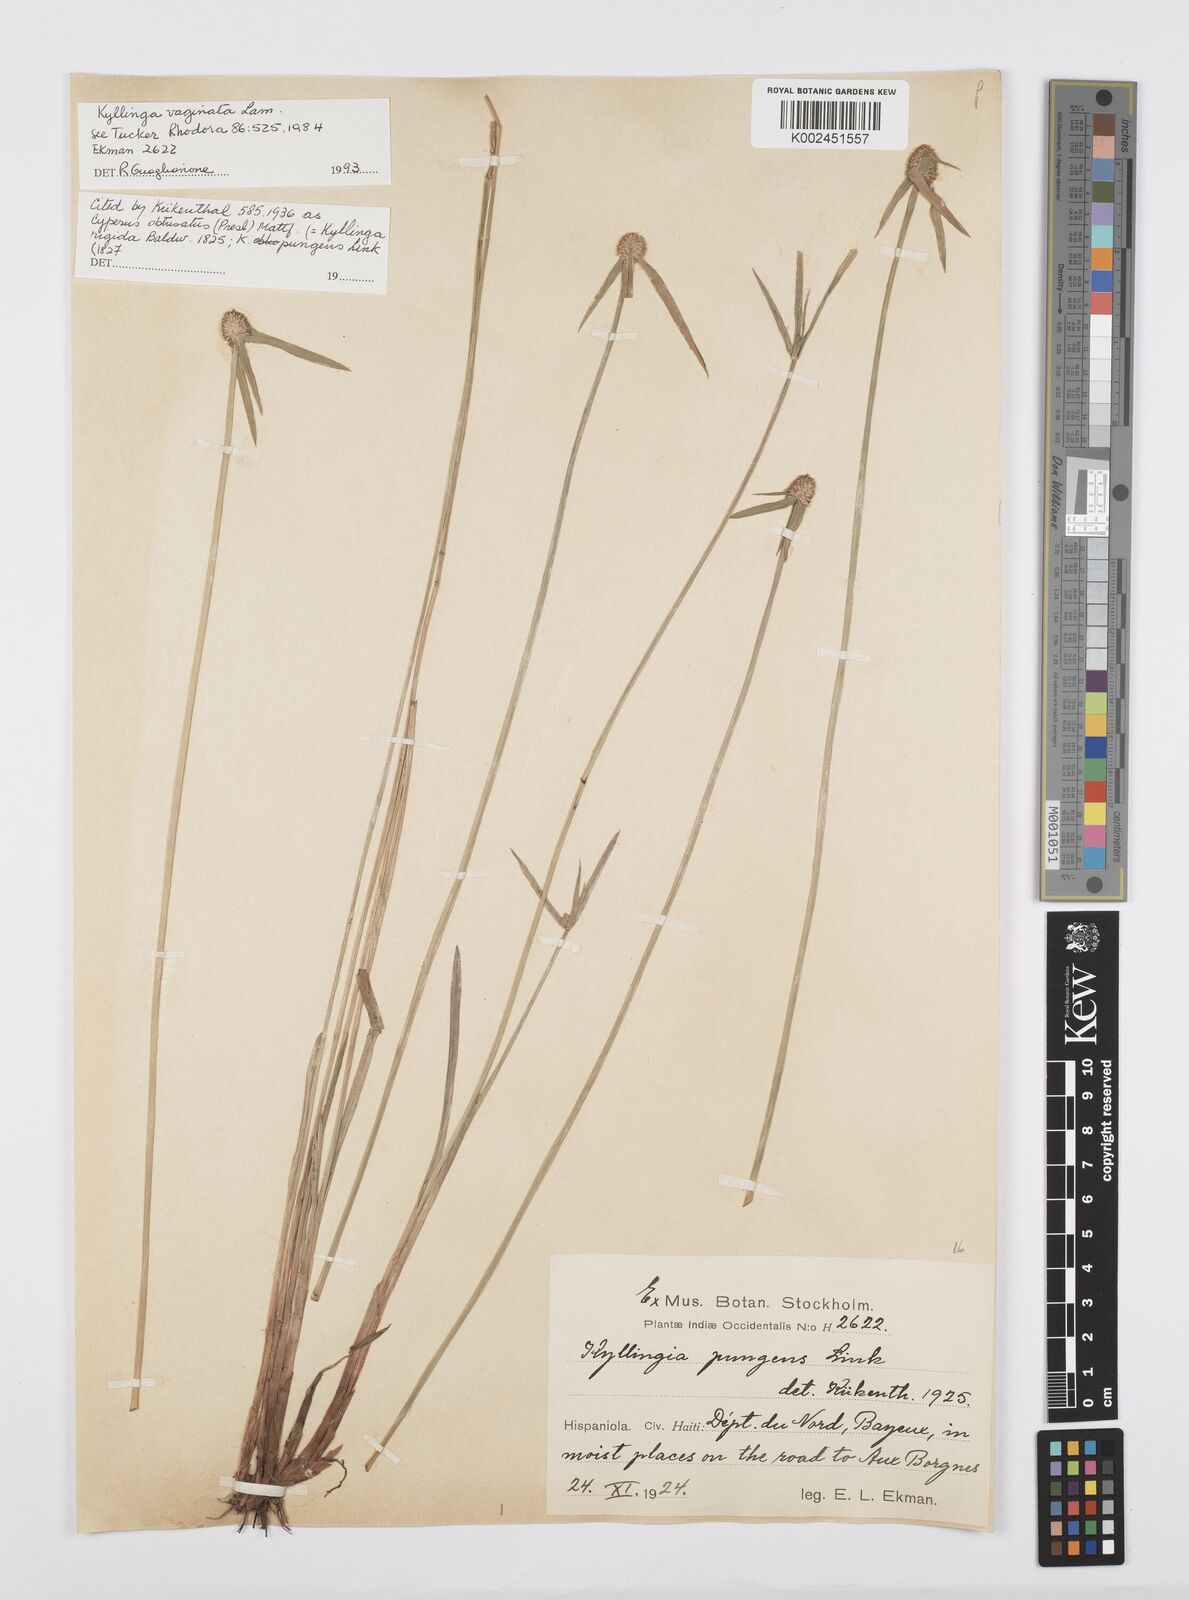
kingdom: Plantae
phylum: Tracheophyta
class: Liliopsida
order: Poales
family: Cyperaceae
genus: Cyperus
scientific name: Cyperus obtusatus
